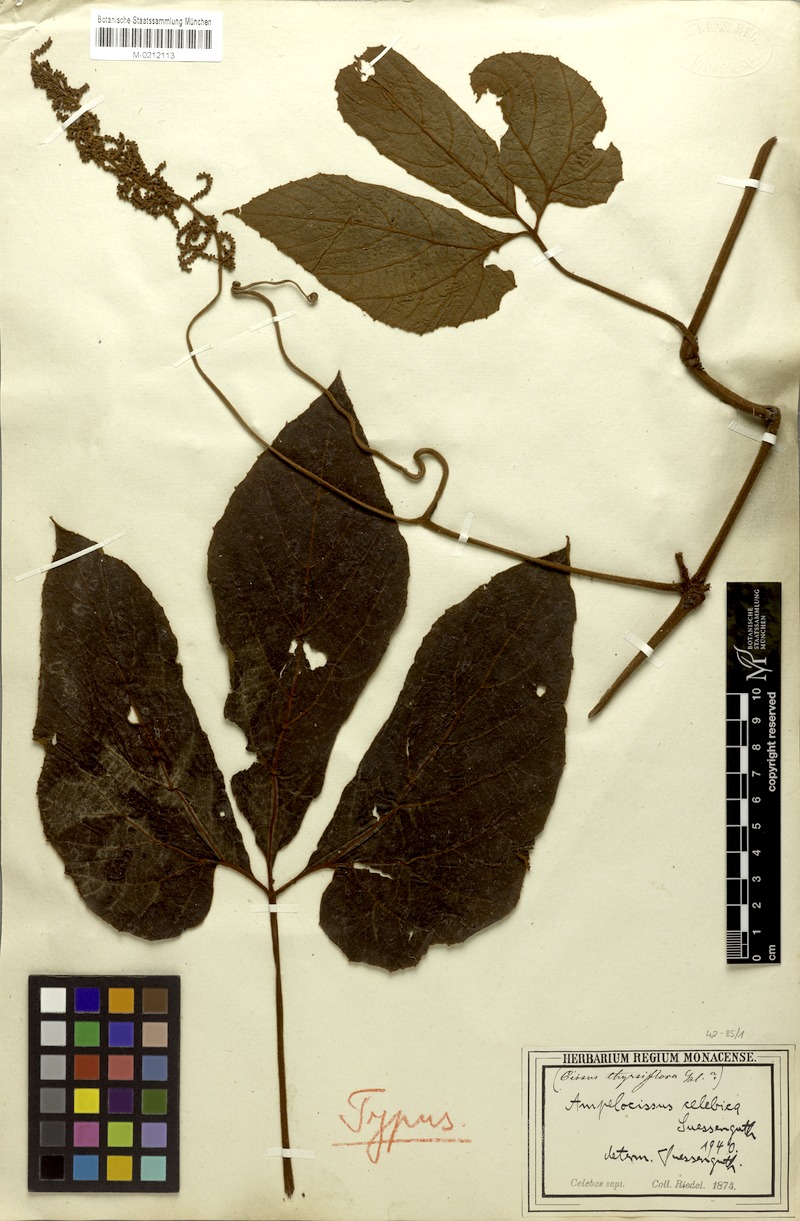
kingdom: Plantae
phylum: Tracheophyta
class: Magnoliopsida
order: Vitales
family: Vitaceae
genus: Ampelocissus
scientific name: Ampelocissus celebica
